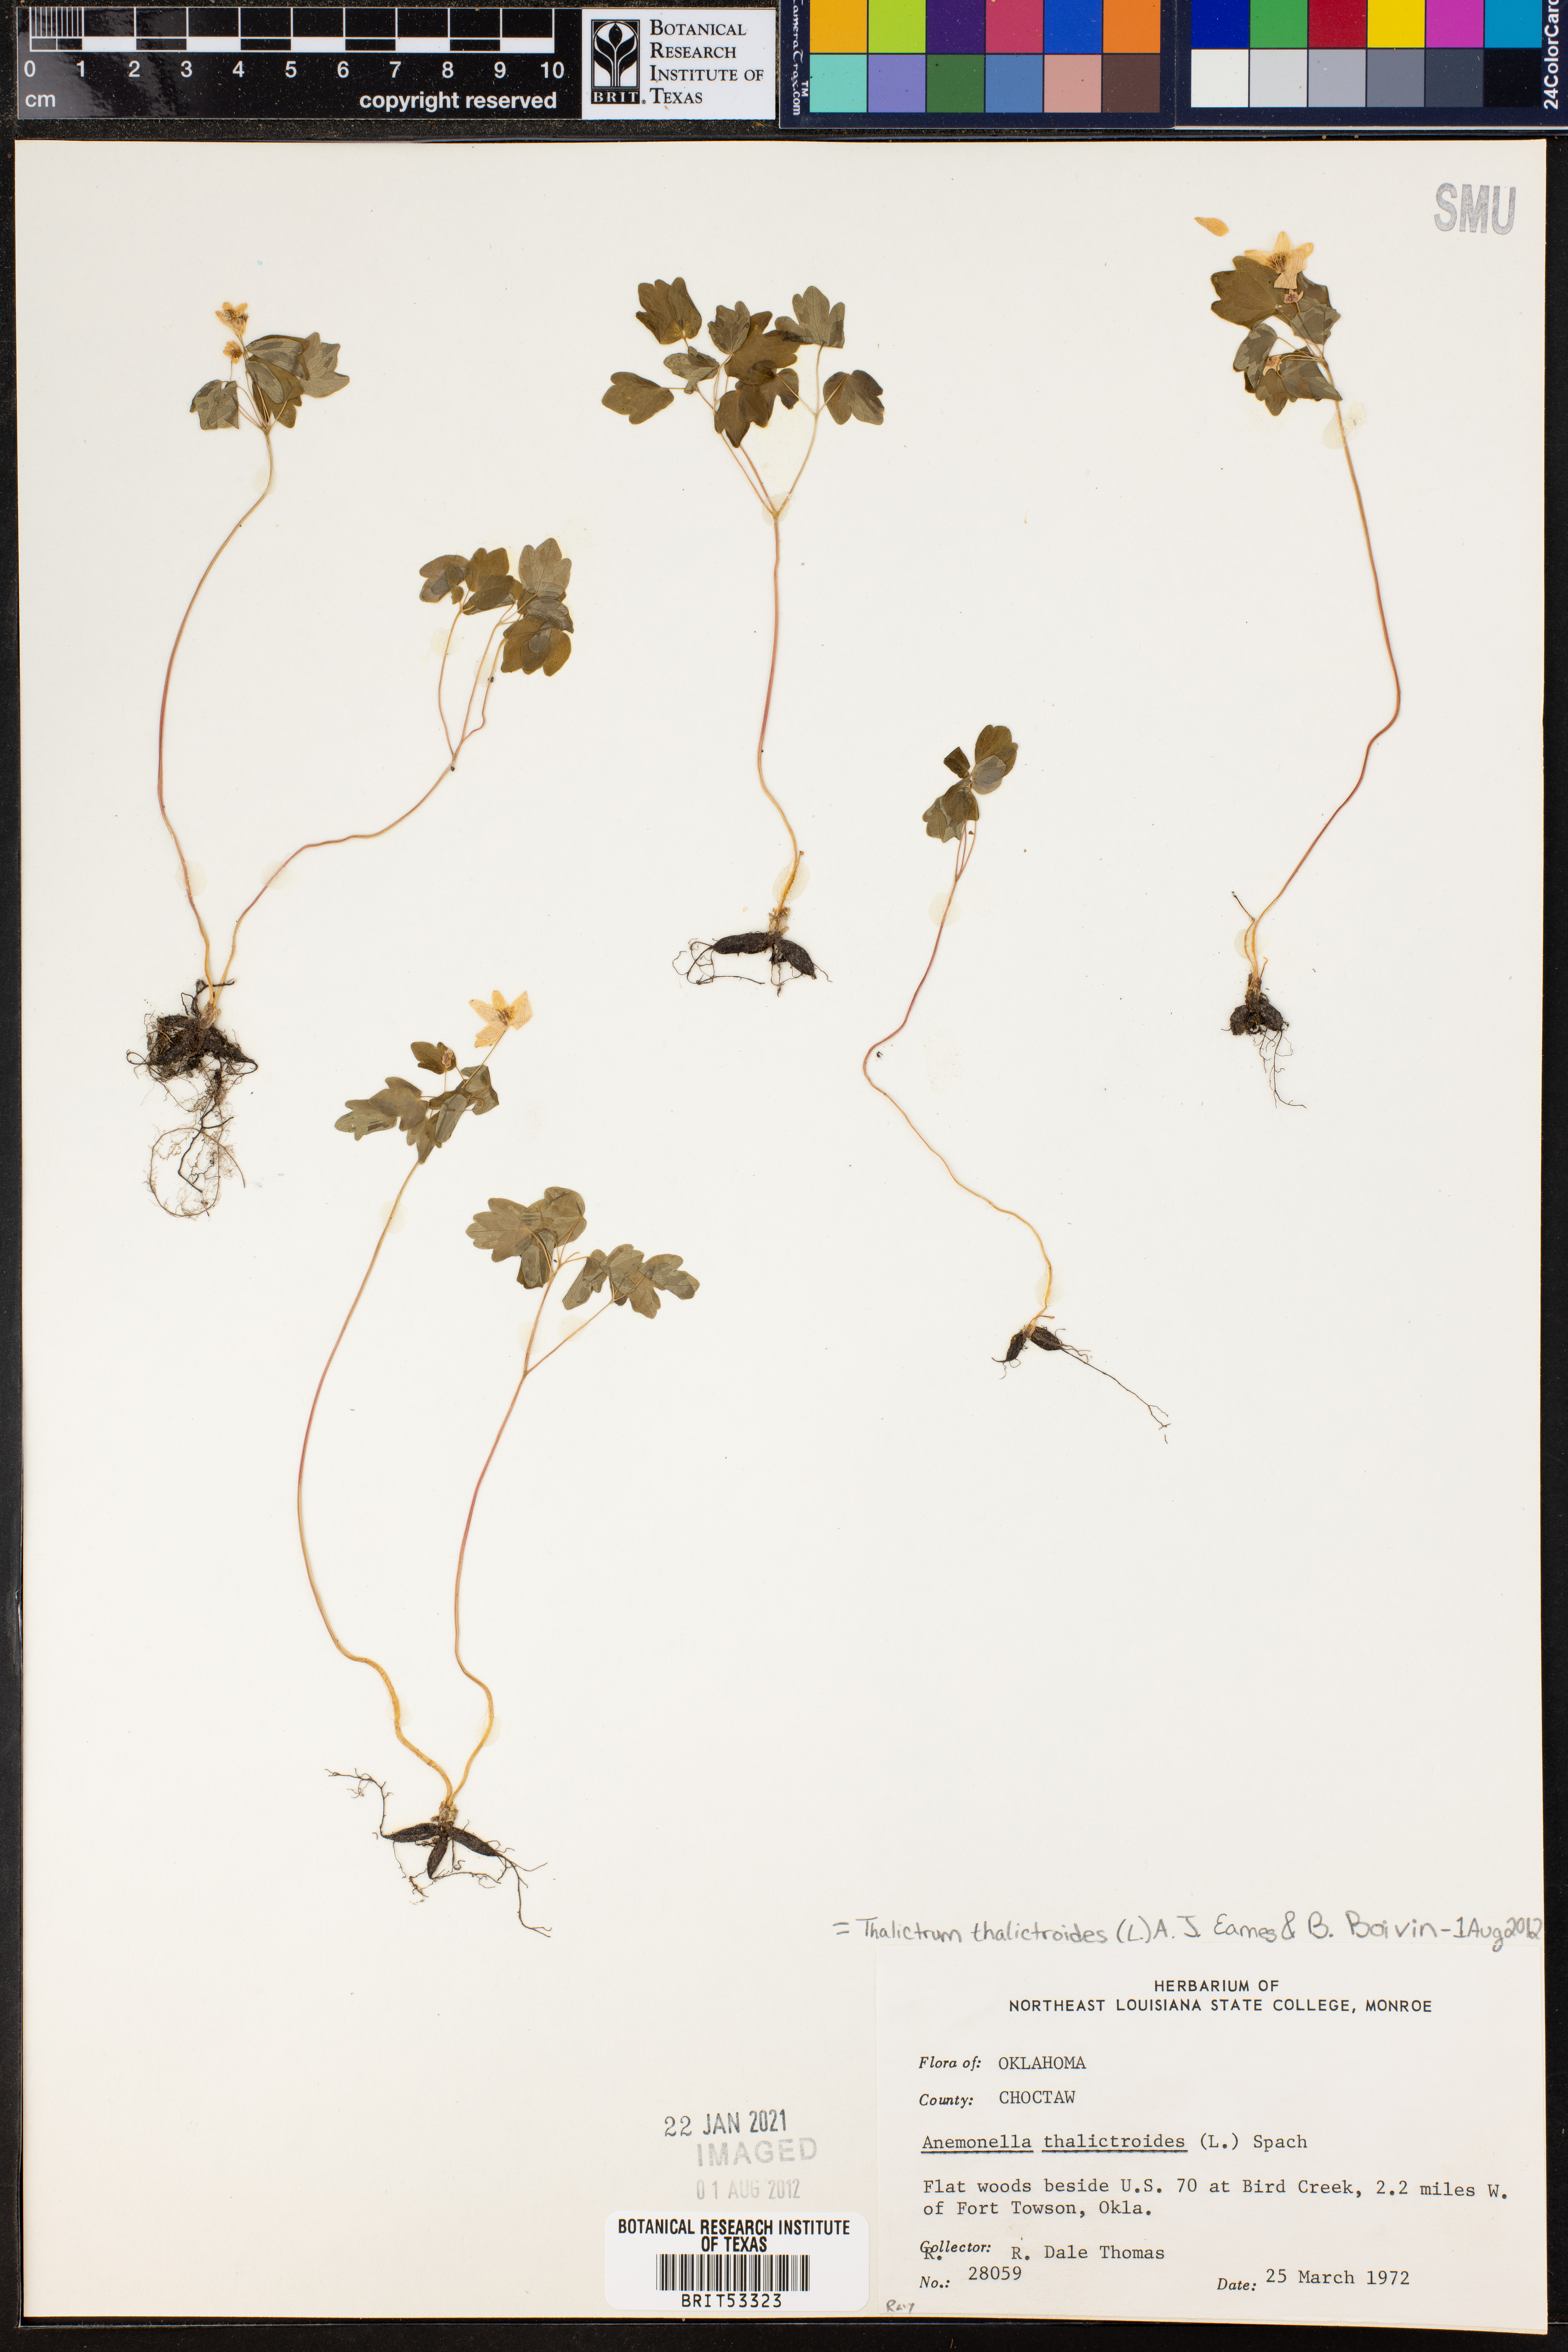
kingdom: Plantae
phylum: Tracheophyta
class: Magnoliopsida
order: Ranunculales
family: Ranunculaceae
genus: Thalictrum
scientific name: Thalictrum thalictroides
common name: Rue-anemone
